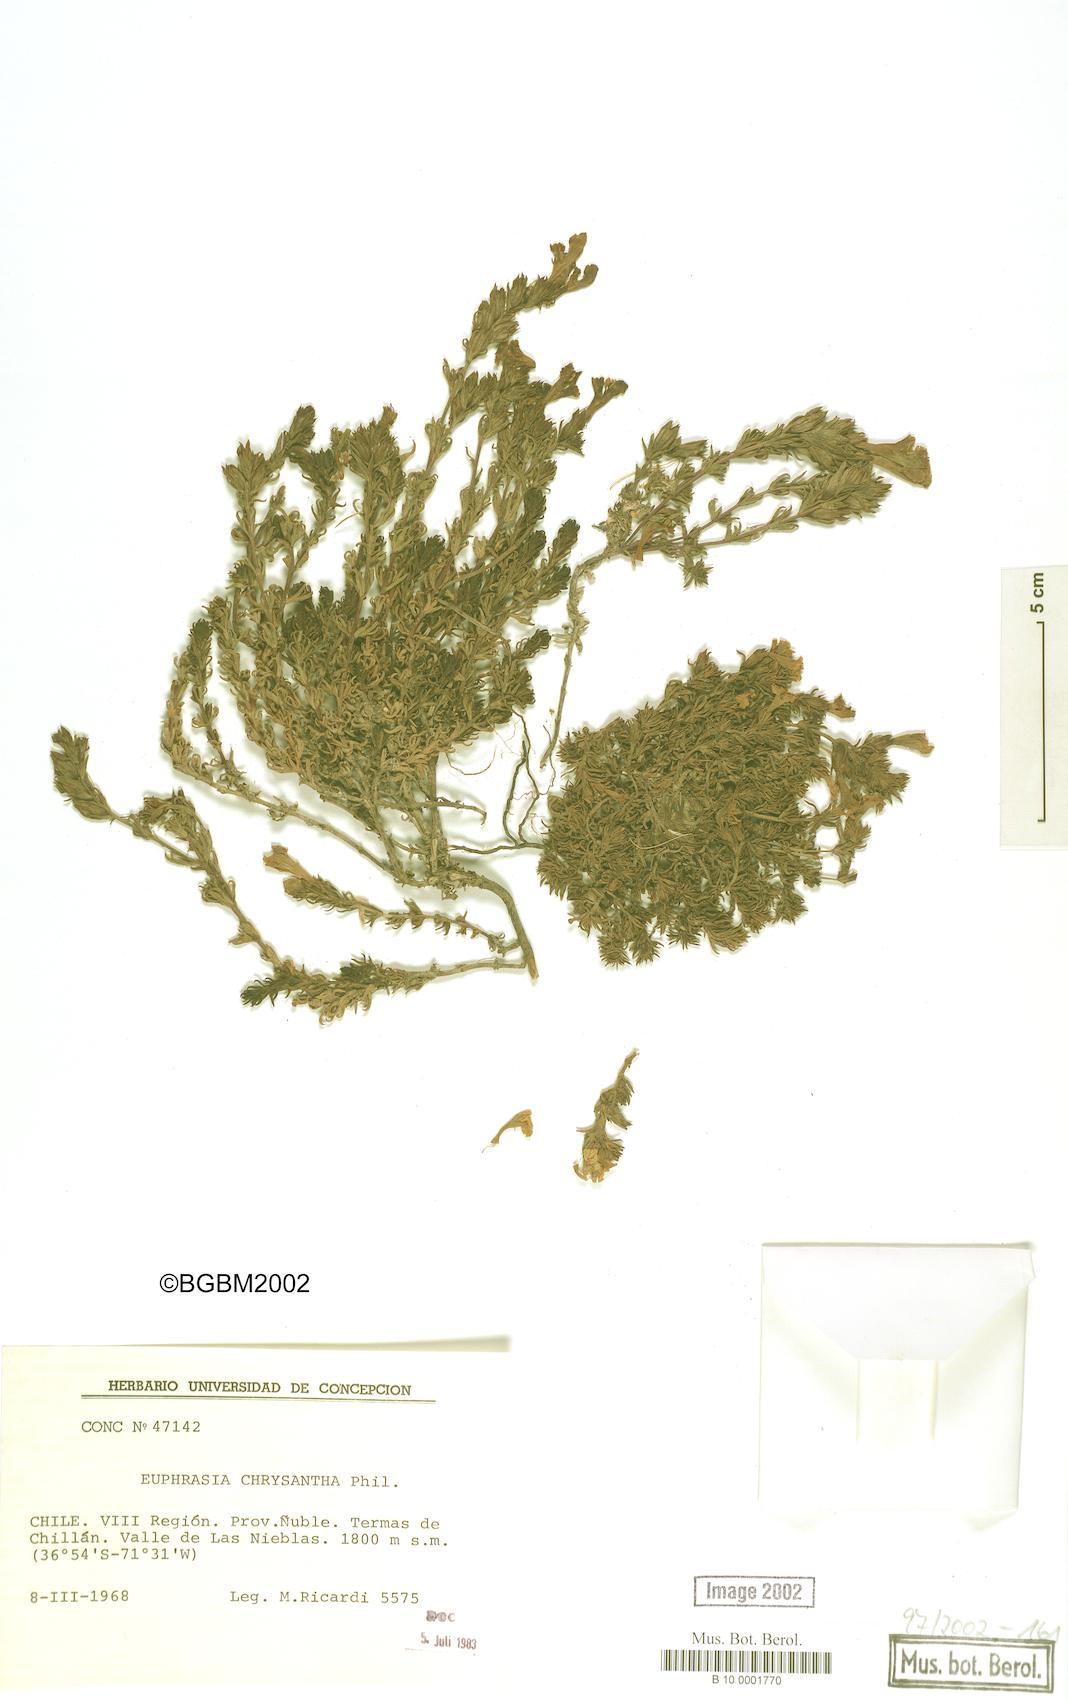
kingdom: Plantae
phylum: Tracheophyta
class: Magnoliopsida
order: Lamiales
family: Orobanchaceae
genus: Euphrasia
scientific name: Euphrasia chrysantha
